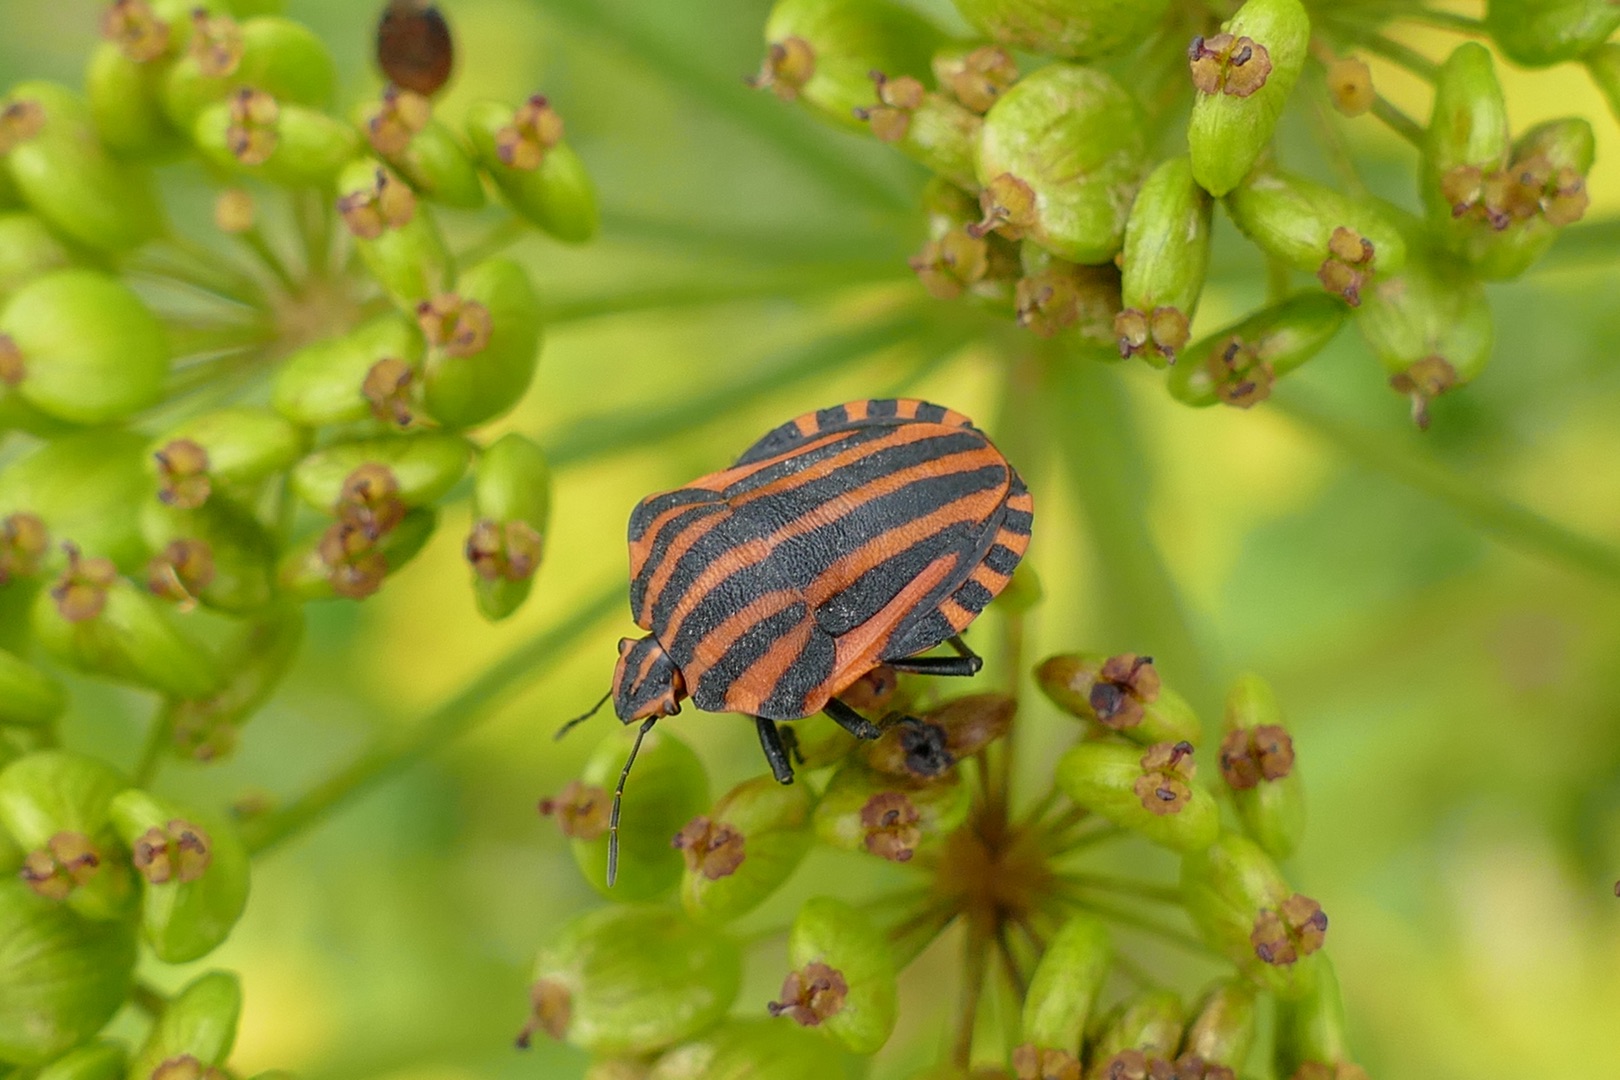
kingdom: Animalia
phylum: Arthropoda
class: Insecta
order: Hemiptera
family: Pentatomidae
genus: Graphosoma
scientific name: Graphosoma italicum
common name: Stribetæge
